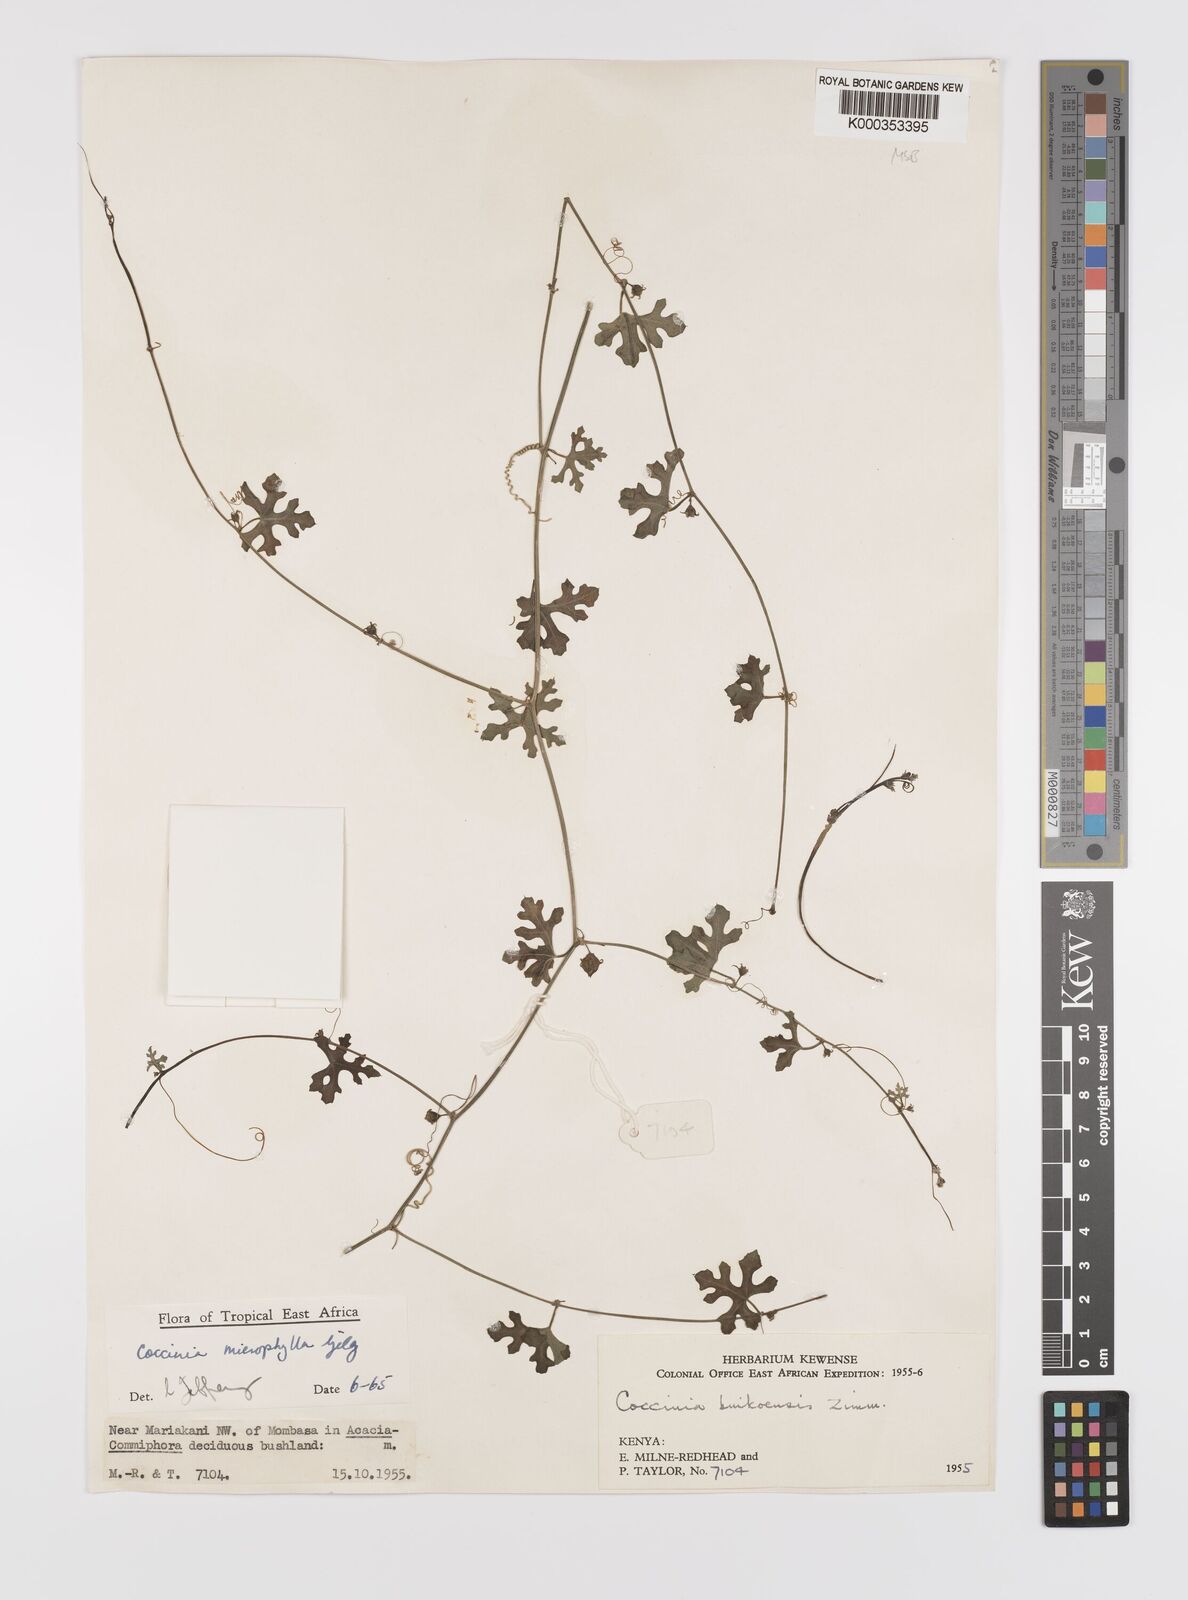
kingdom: Plantae
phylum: Tracheophyta
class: Magnoliopsida
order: Cucurbitales
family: Cucurbitaceae
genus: Coccinia
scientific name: Coccinia microphylla
